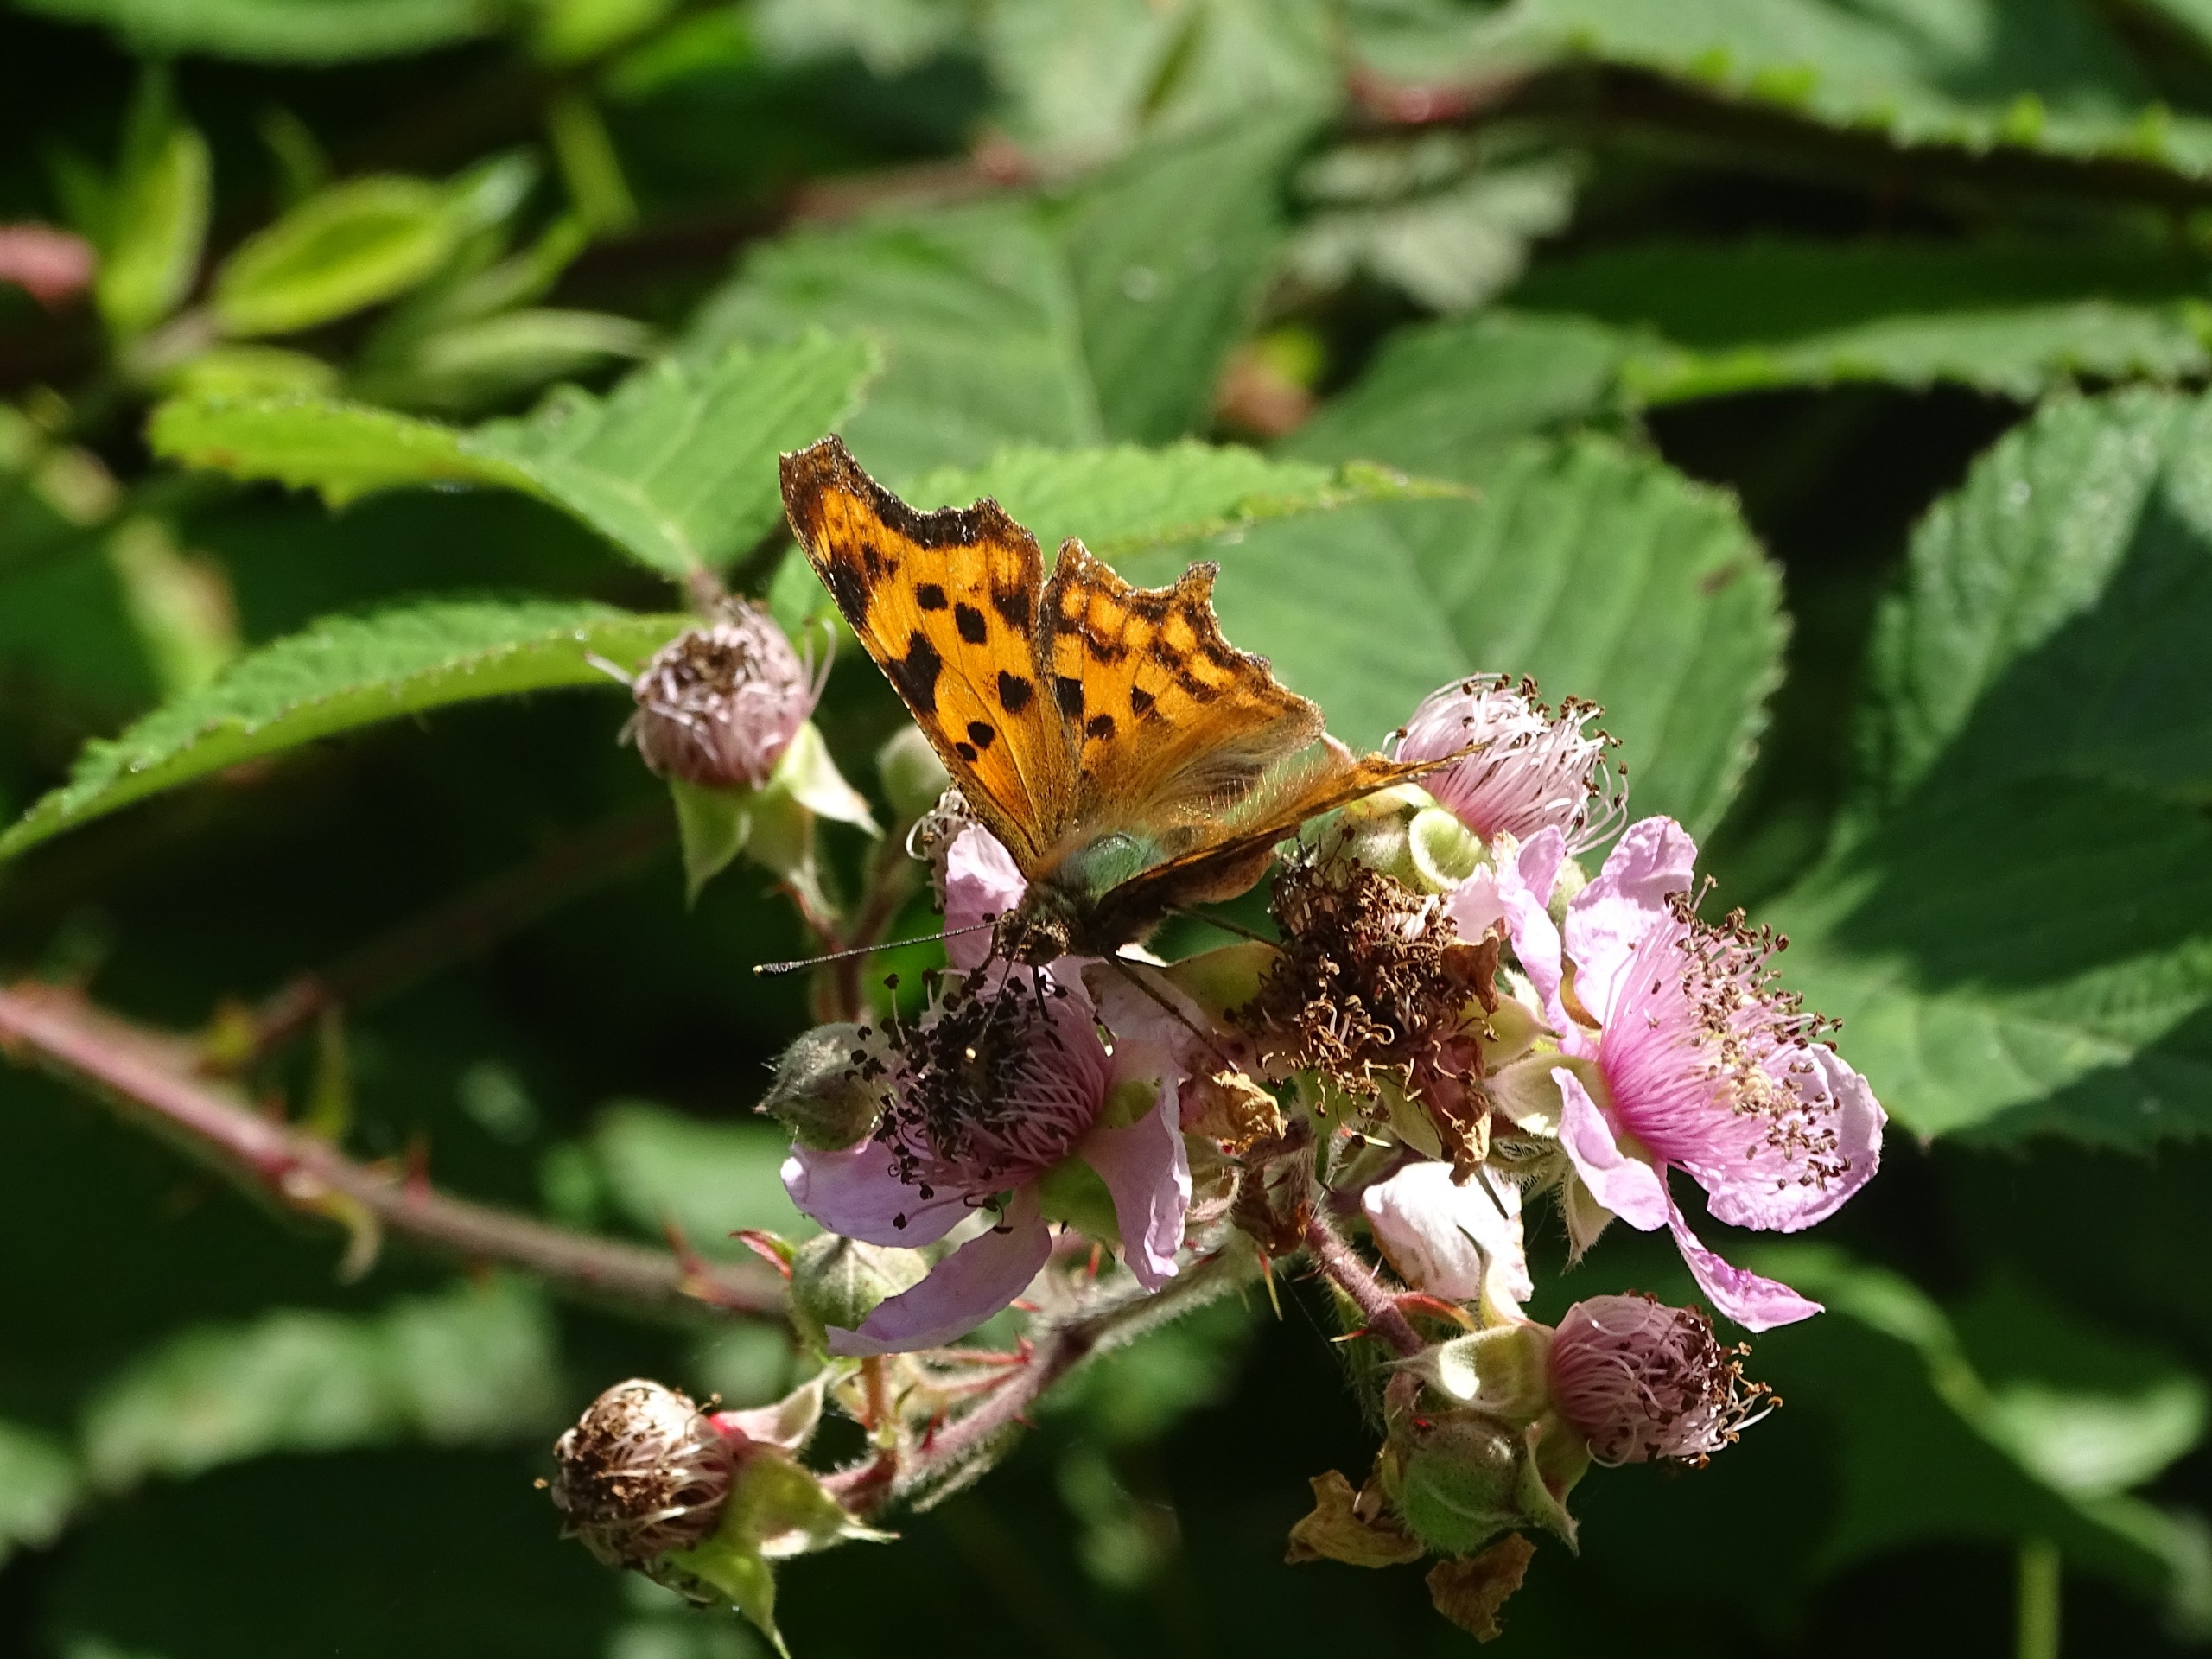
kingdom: Animalia
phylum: Arthropoda
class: Insecta
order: Lepidoptera
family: Nymphalidae
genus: Polygonia
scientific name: Polygonia c-album
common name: Det hvide C
